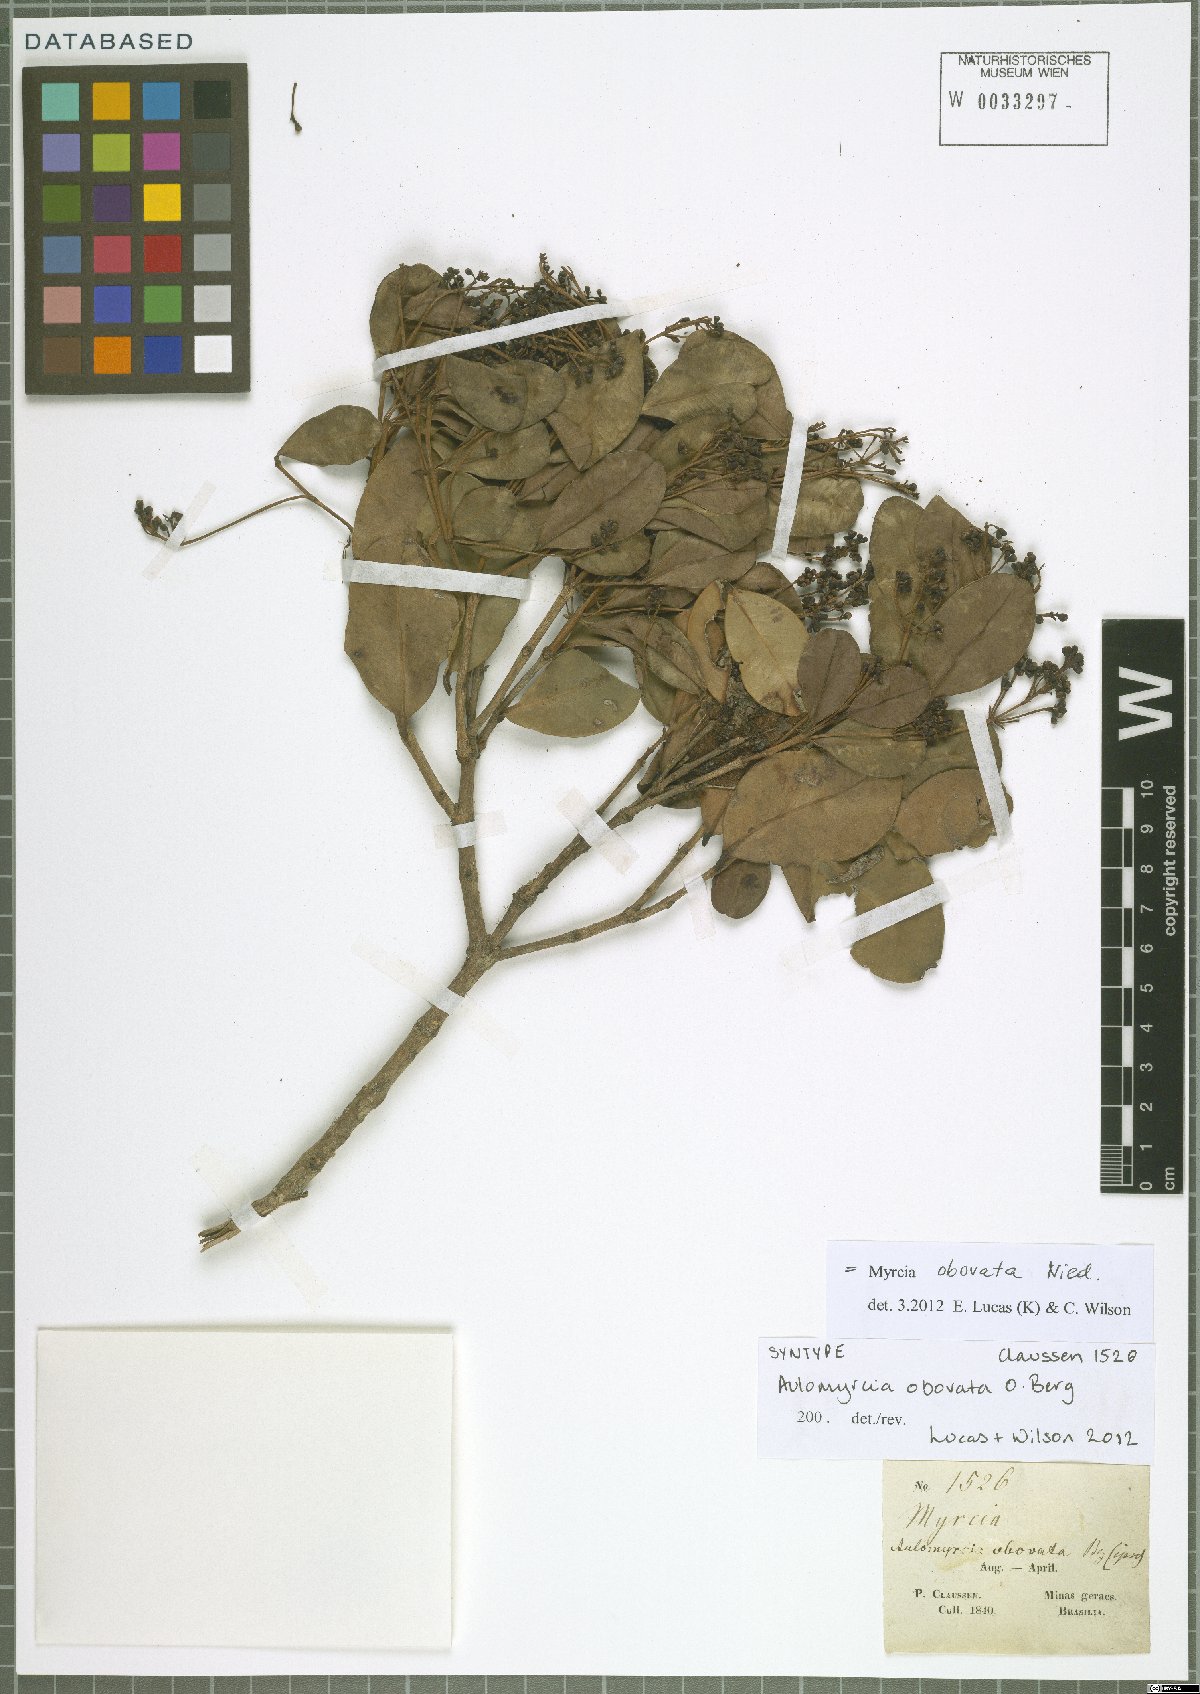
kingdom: Plantae
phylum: Tracheophyta
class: Magnoliopsida
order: Myrtales
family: Myrtaceae
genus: Myrcia
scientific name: Myrcia obovata
